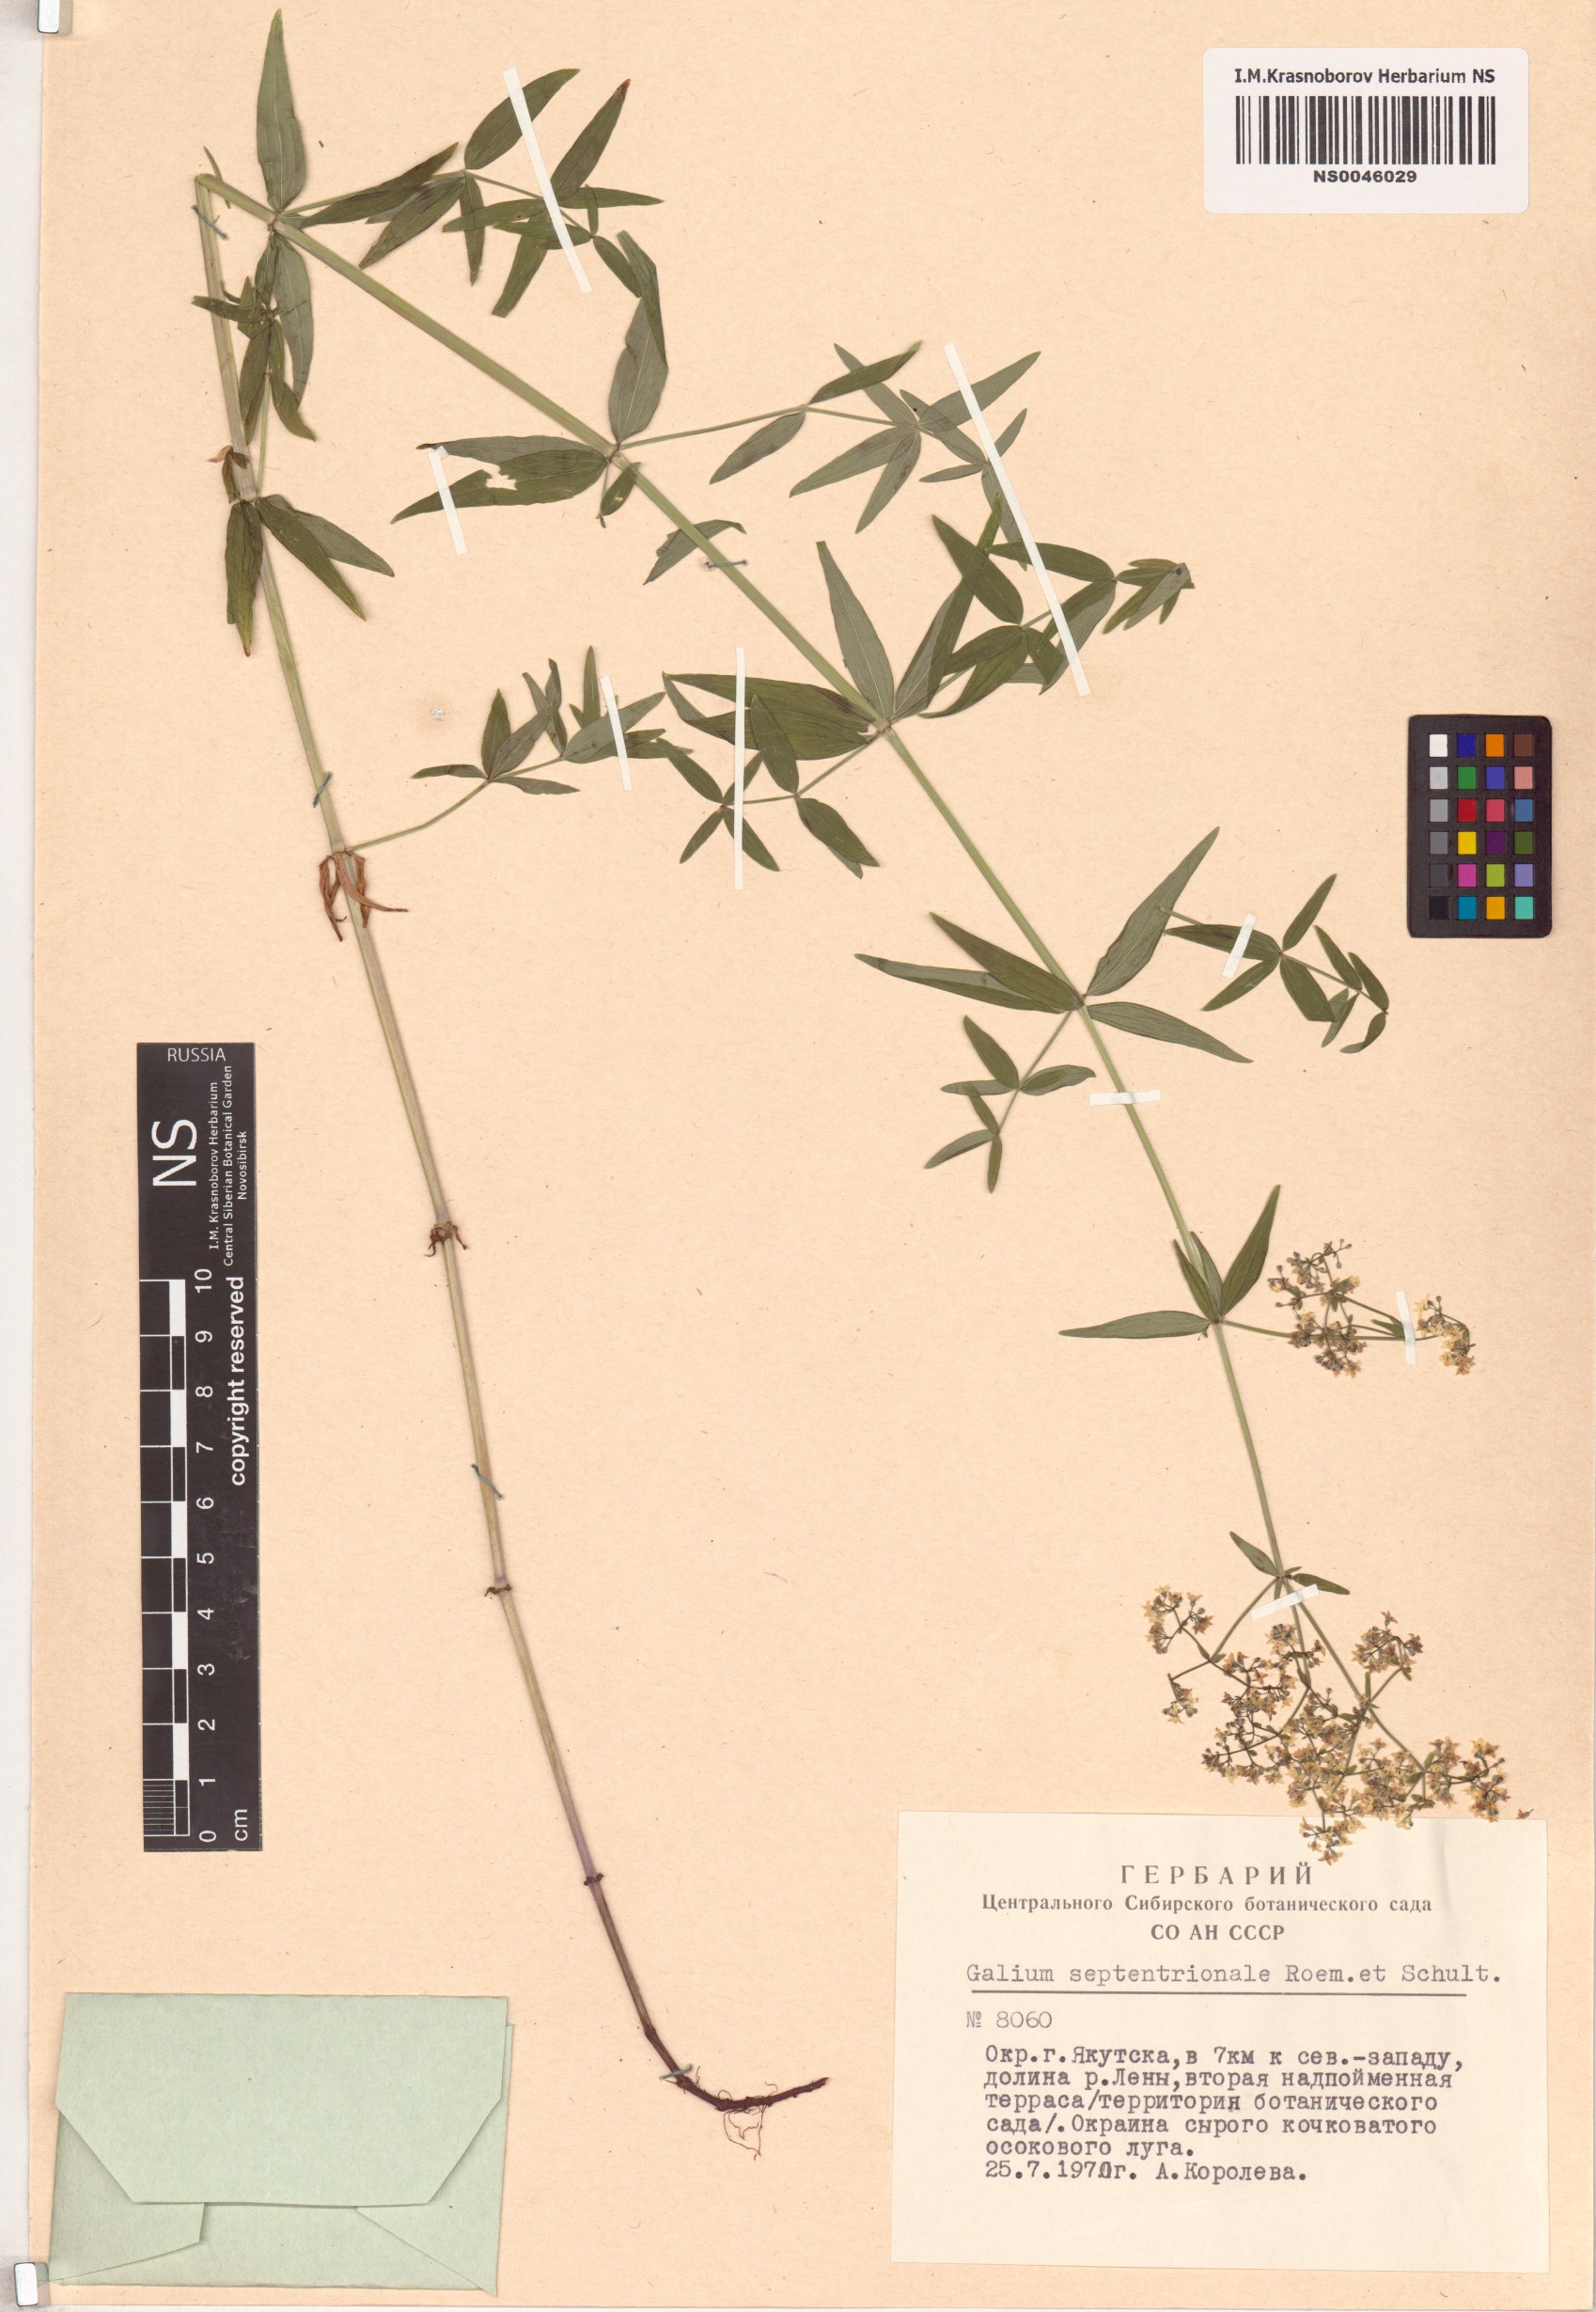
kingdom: Plantae
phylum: Tracheophyta
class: Magnoliopsida
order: Gentianales
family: Rubiaceae
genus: Galium
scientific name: Galium boreale
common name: Northern bedstraw
